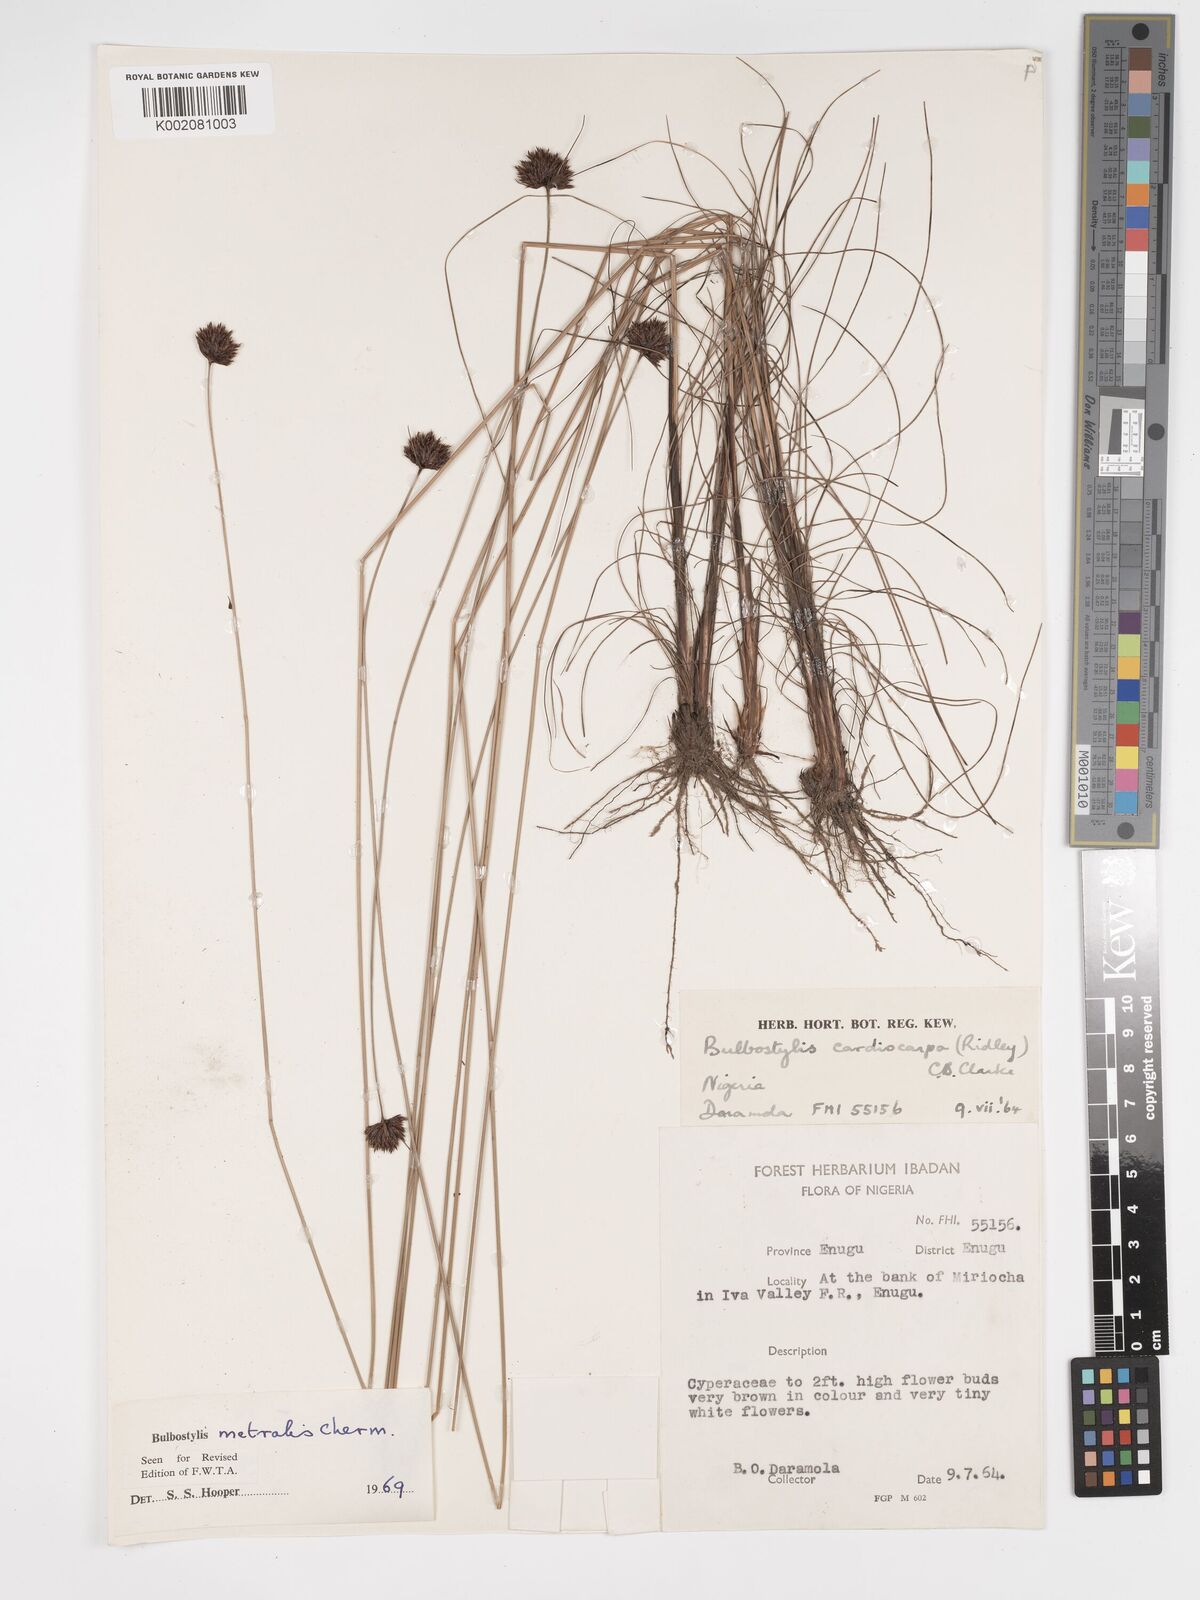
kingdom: Plantae
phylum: Tracheophyta
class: Liliopsida
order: Poales
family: Cyperaceae
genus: Bulbostylis
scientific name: Bulbostylis filamentosa
